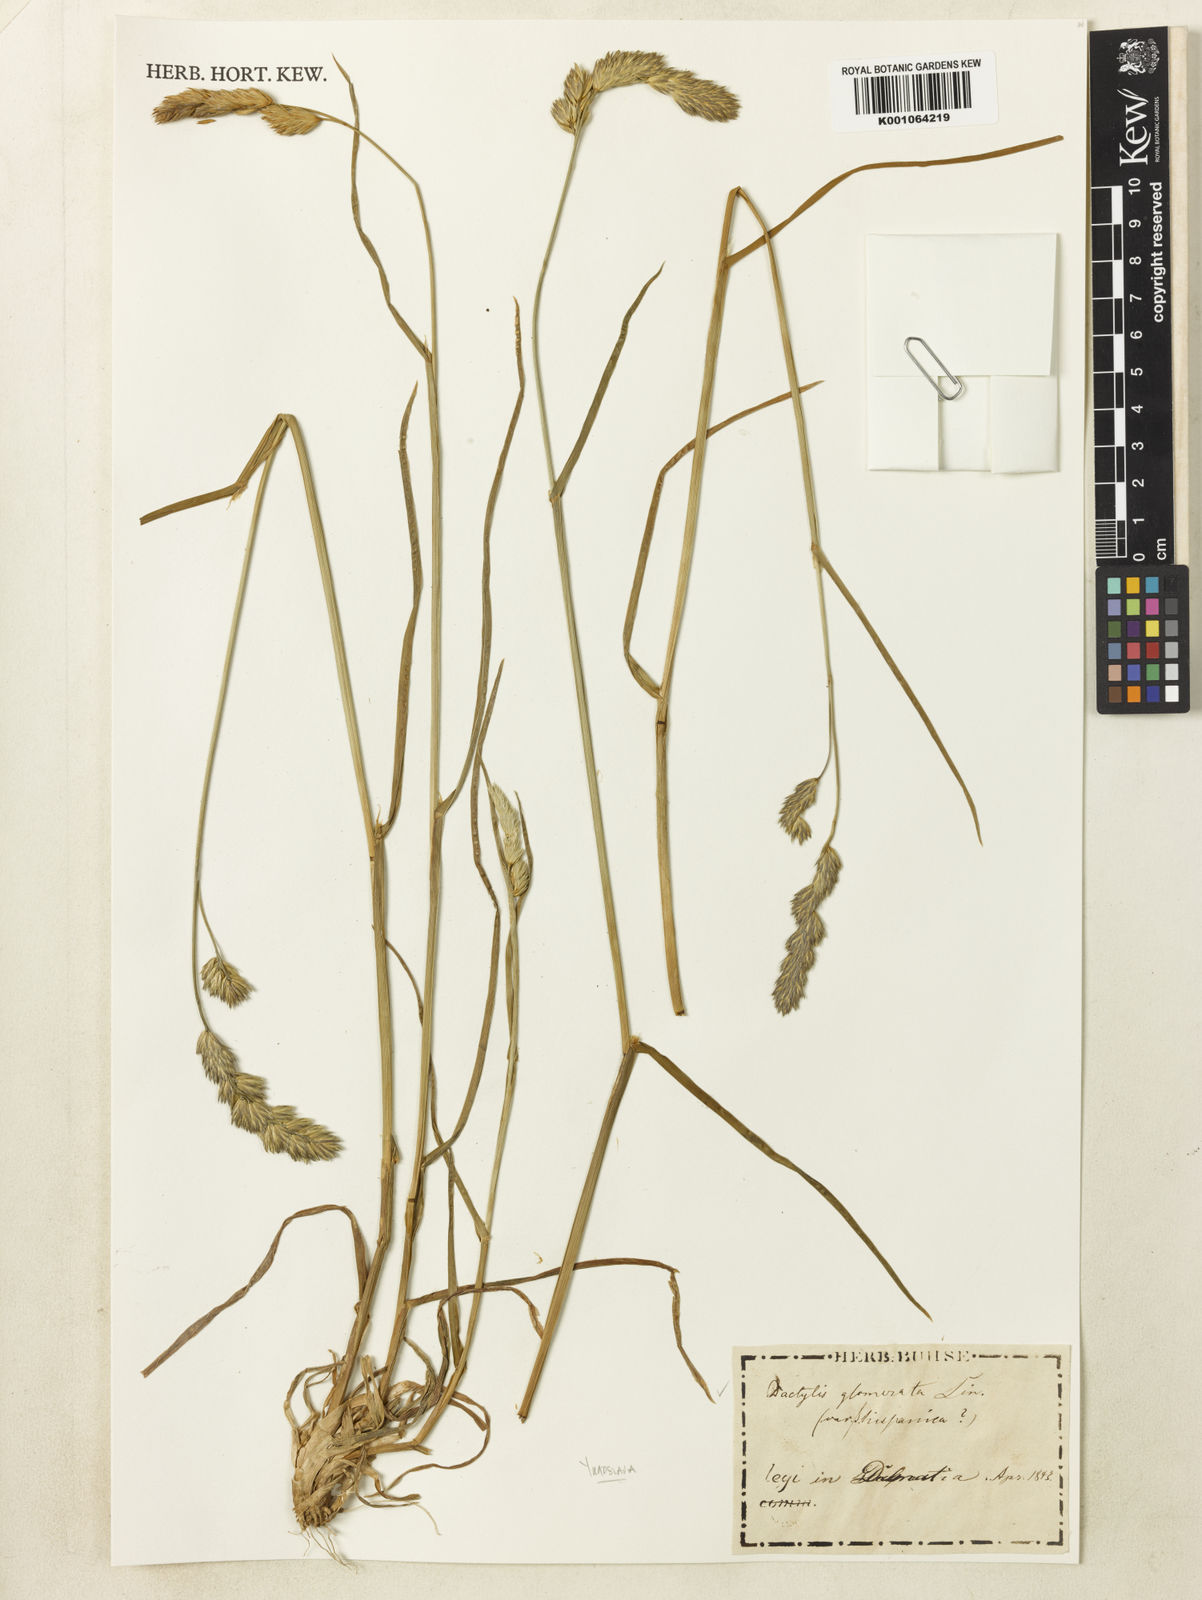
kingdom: Plantae
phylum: Tracheophyta
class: Liliopsida
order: Poales
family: Poaceae
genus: Dactylis
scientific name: Dactylis glomerata
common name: Orchardgrass
